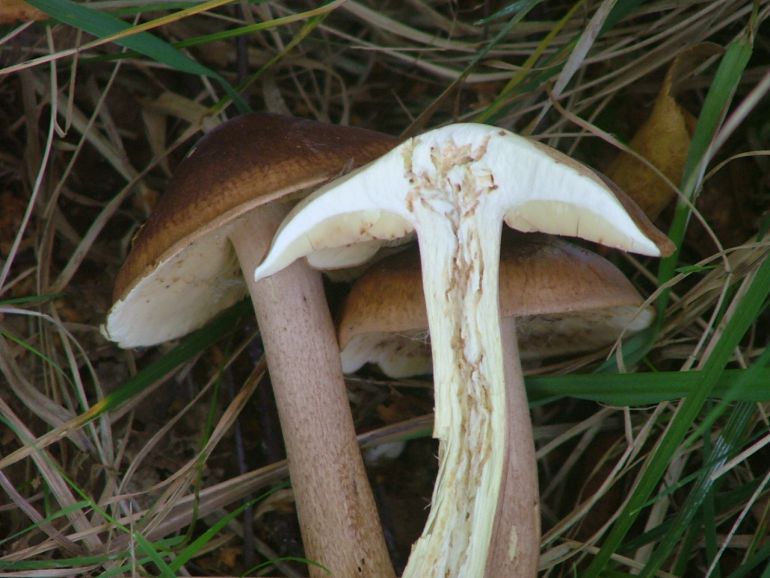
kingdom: Fungi
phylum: Basidiomycota
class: Agaricomycetes
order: Agaricales
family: Tricholomataceae
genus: Tricholoma
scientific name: Tricholoma fulvum
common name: birke-ridderhat
